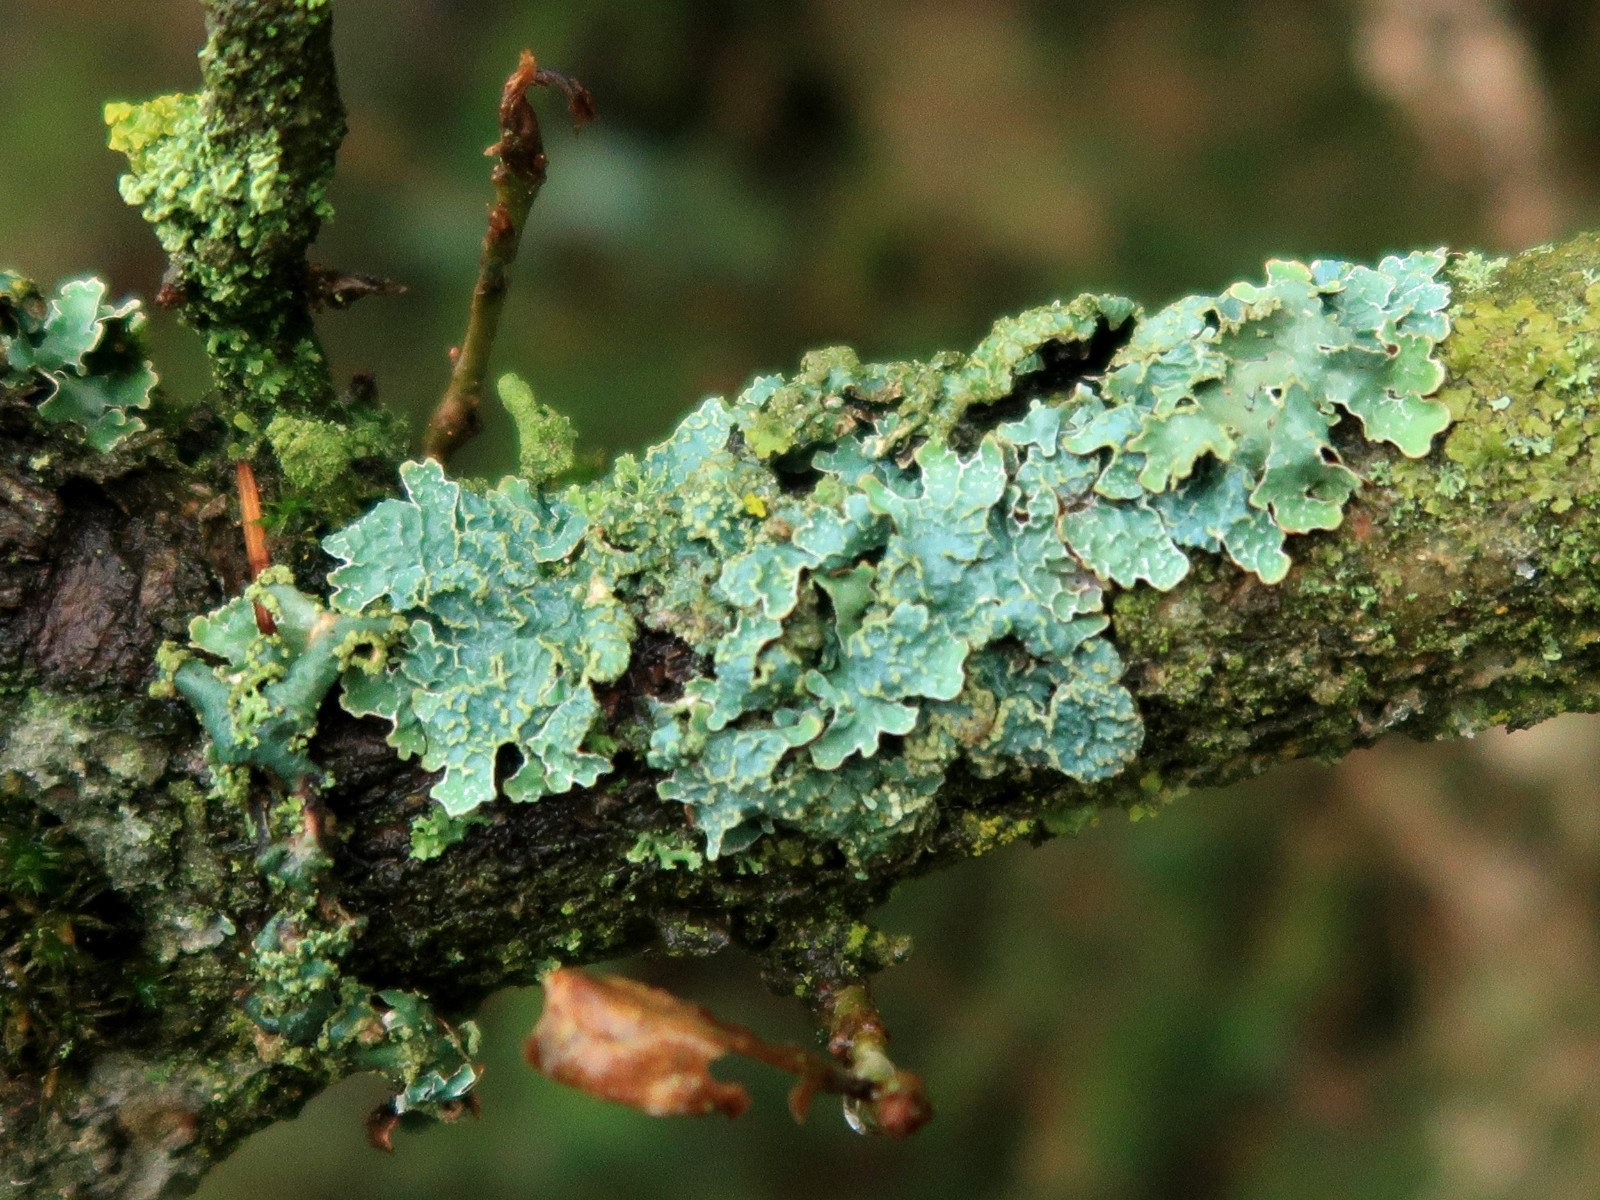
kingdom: Fungi
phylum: Ascomycota
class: Lecanoromycetes
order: Lecanorales
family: Parmeliaceae
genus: Parmelia
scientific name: Parmelia sulcata
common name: rynket skållav
